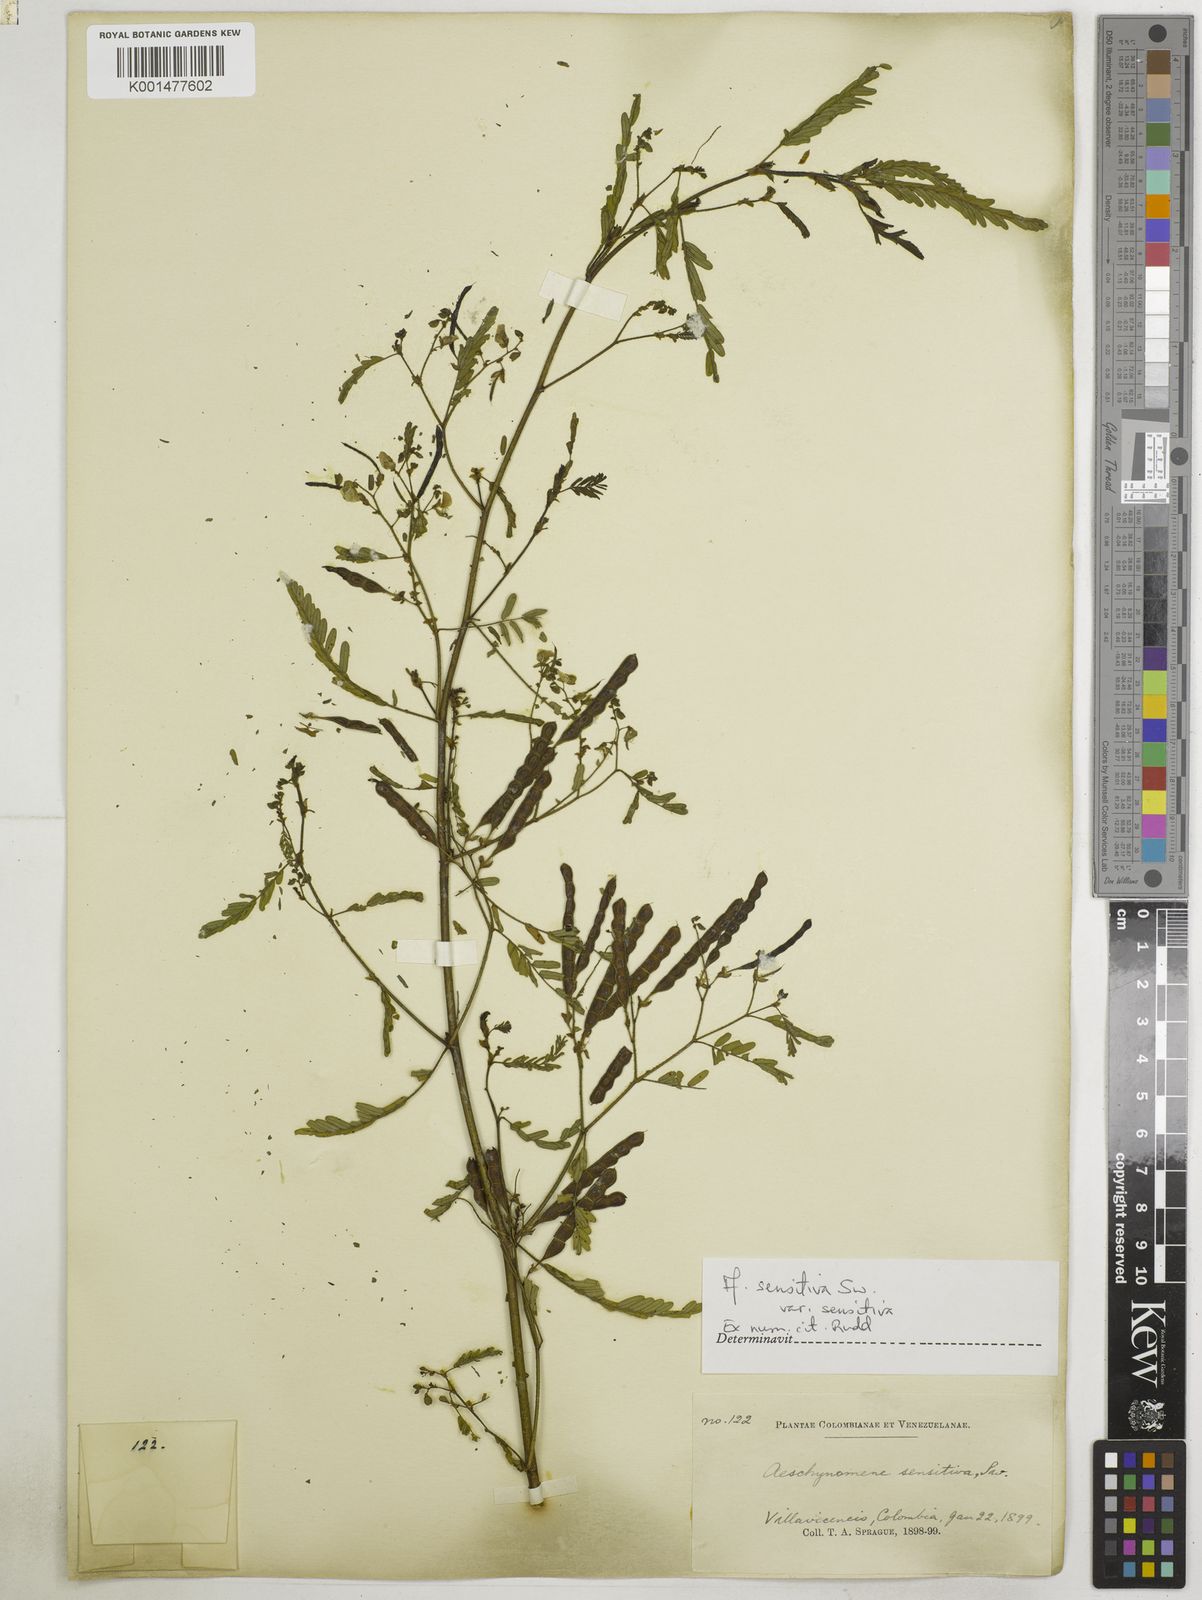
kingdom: Plantae
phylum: Tracheophyta
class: Magnoliopsida
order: Fabales
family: Fabaceae
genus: Aeschynomene
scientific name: Aeschynomene sensitiva
